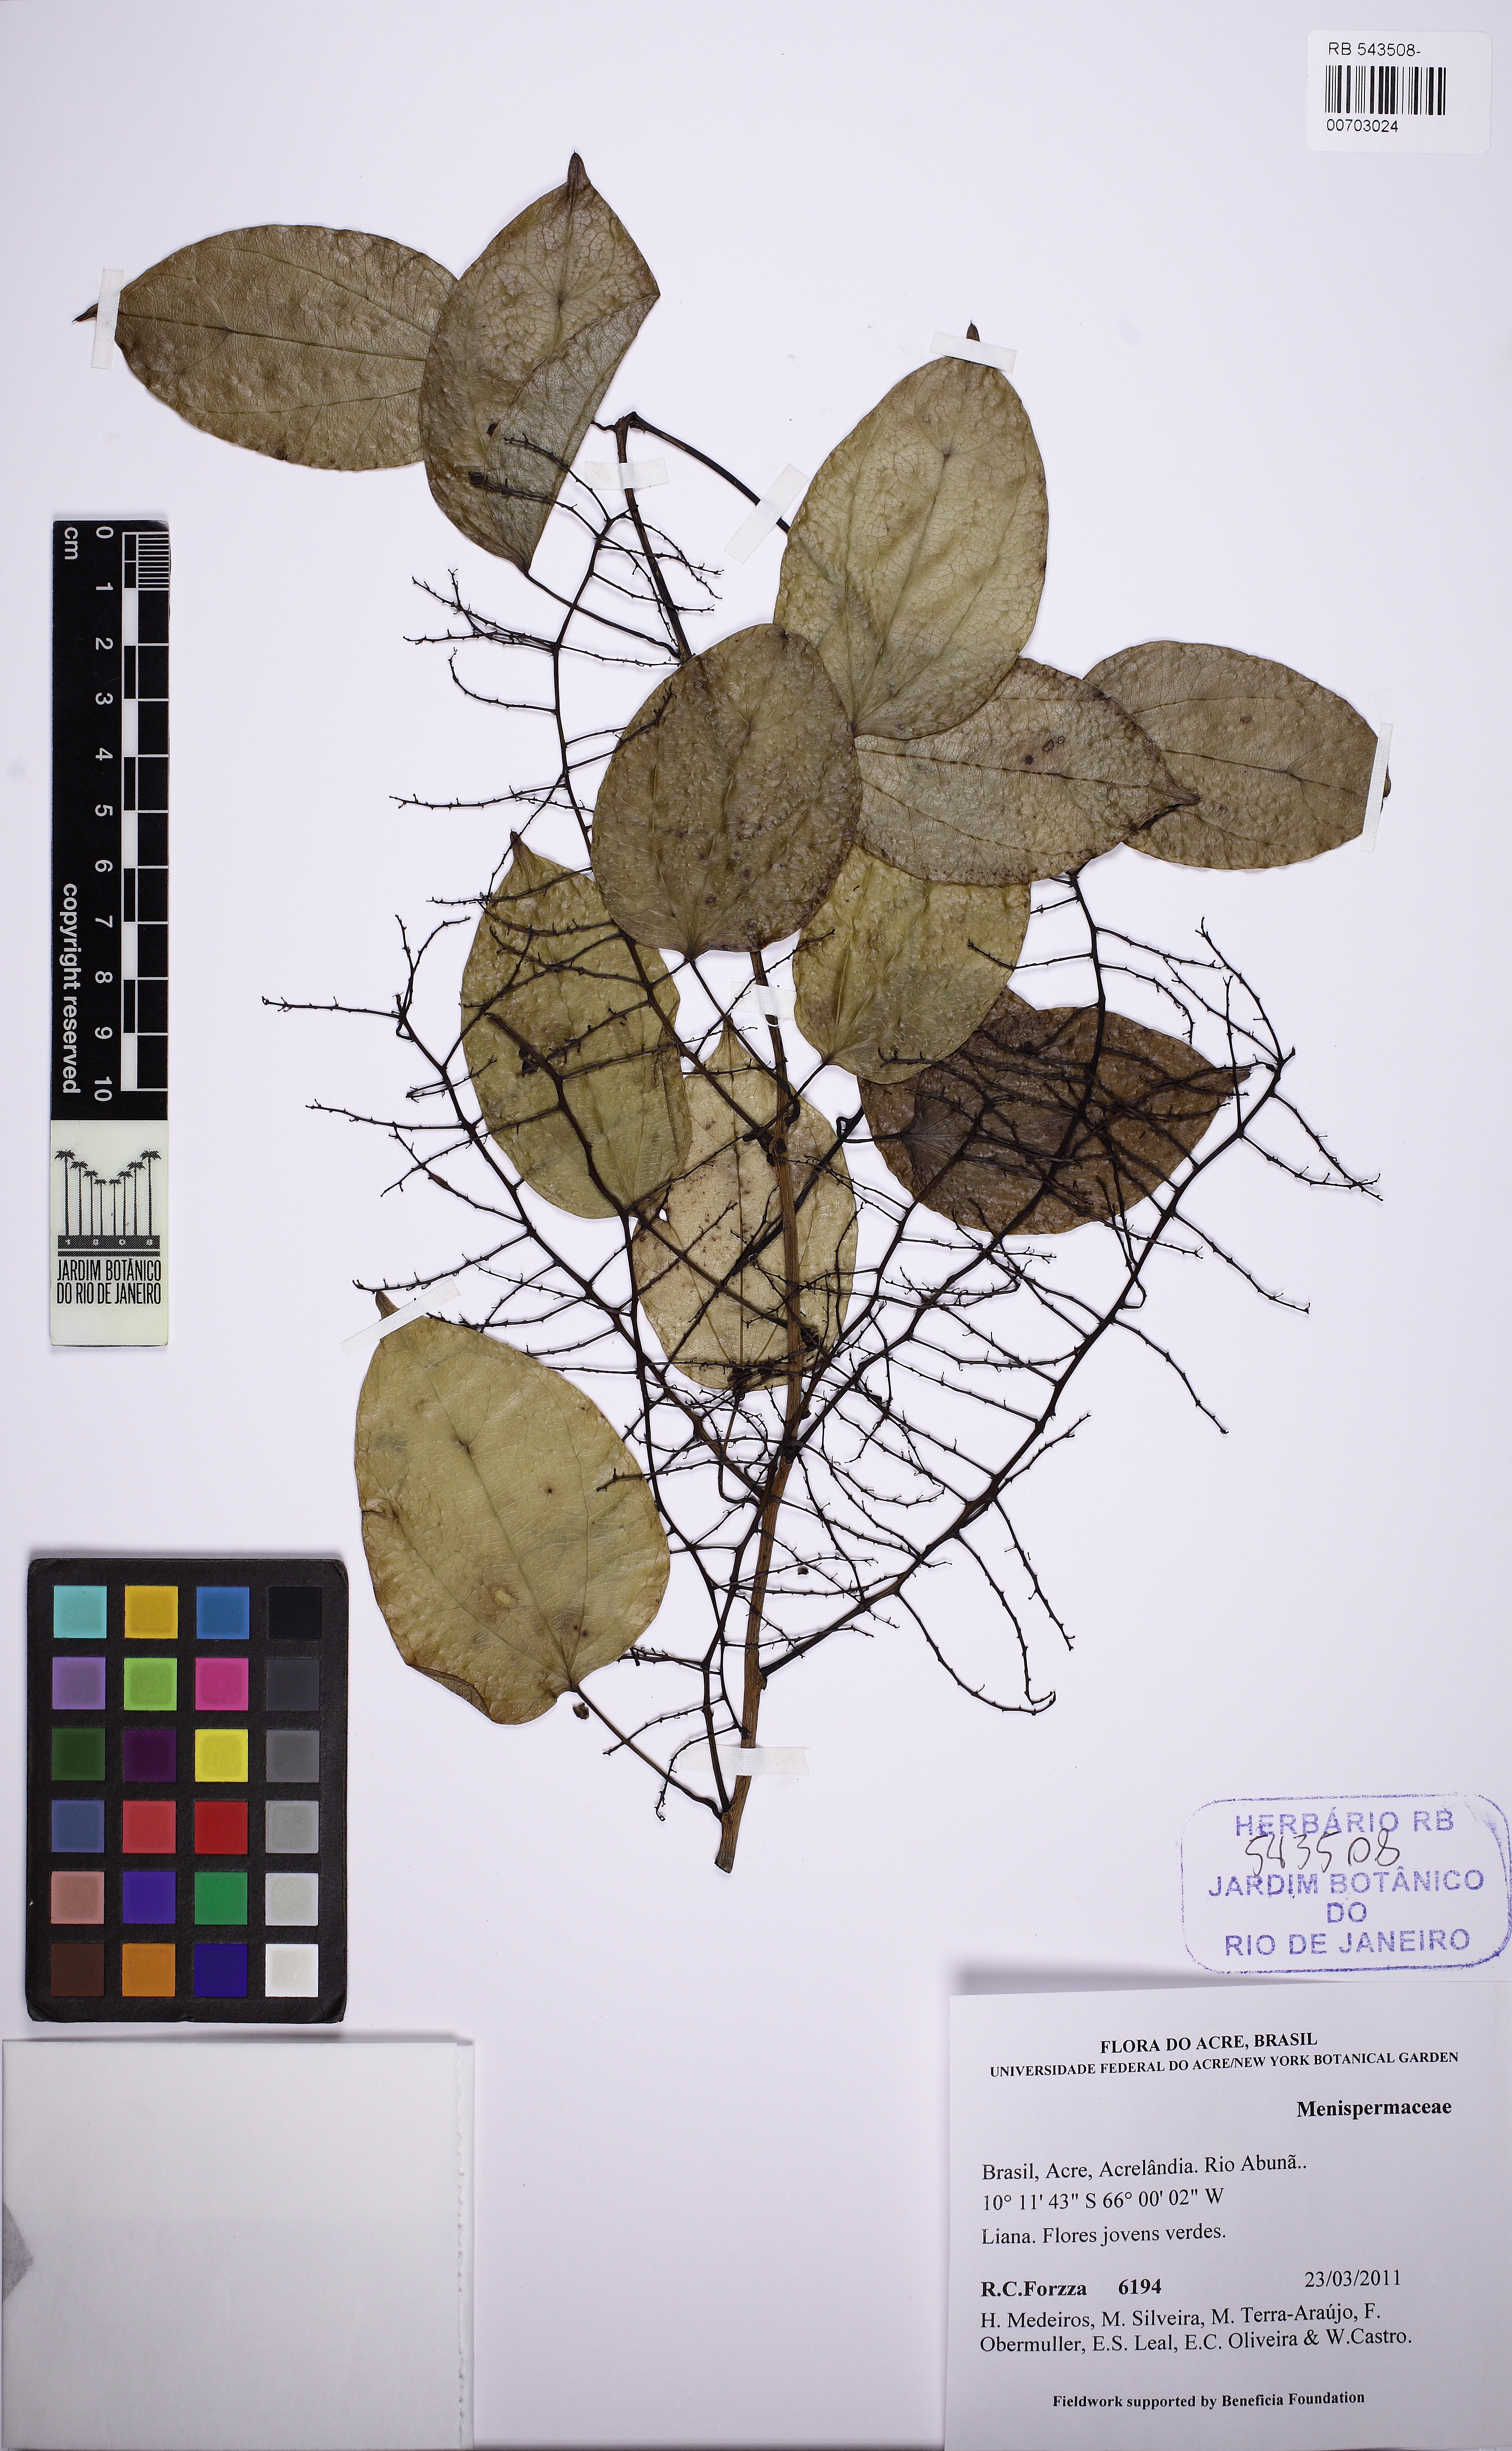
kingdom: Plantae
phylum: Tracheophyta
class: Magnoliopsida
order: Ranunculales
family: Menispermaceae
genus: Odontocarya
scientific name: Odontocarya
